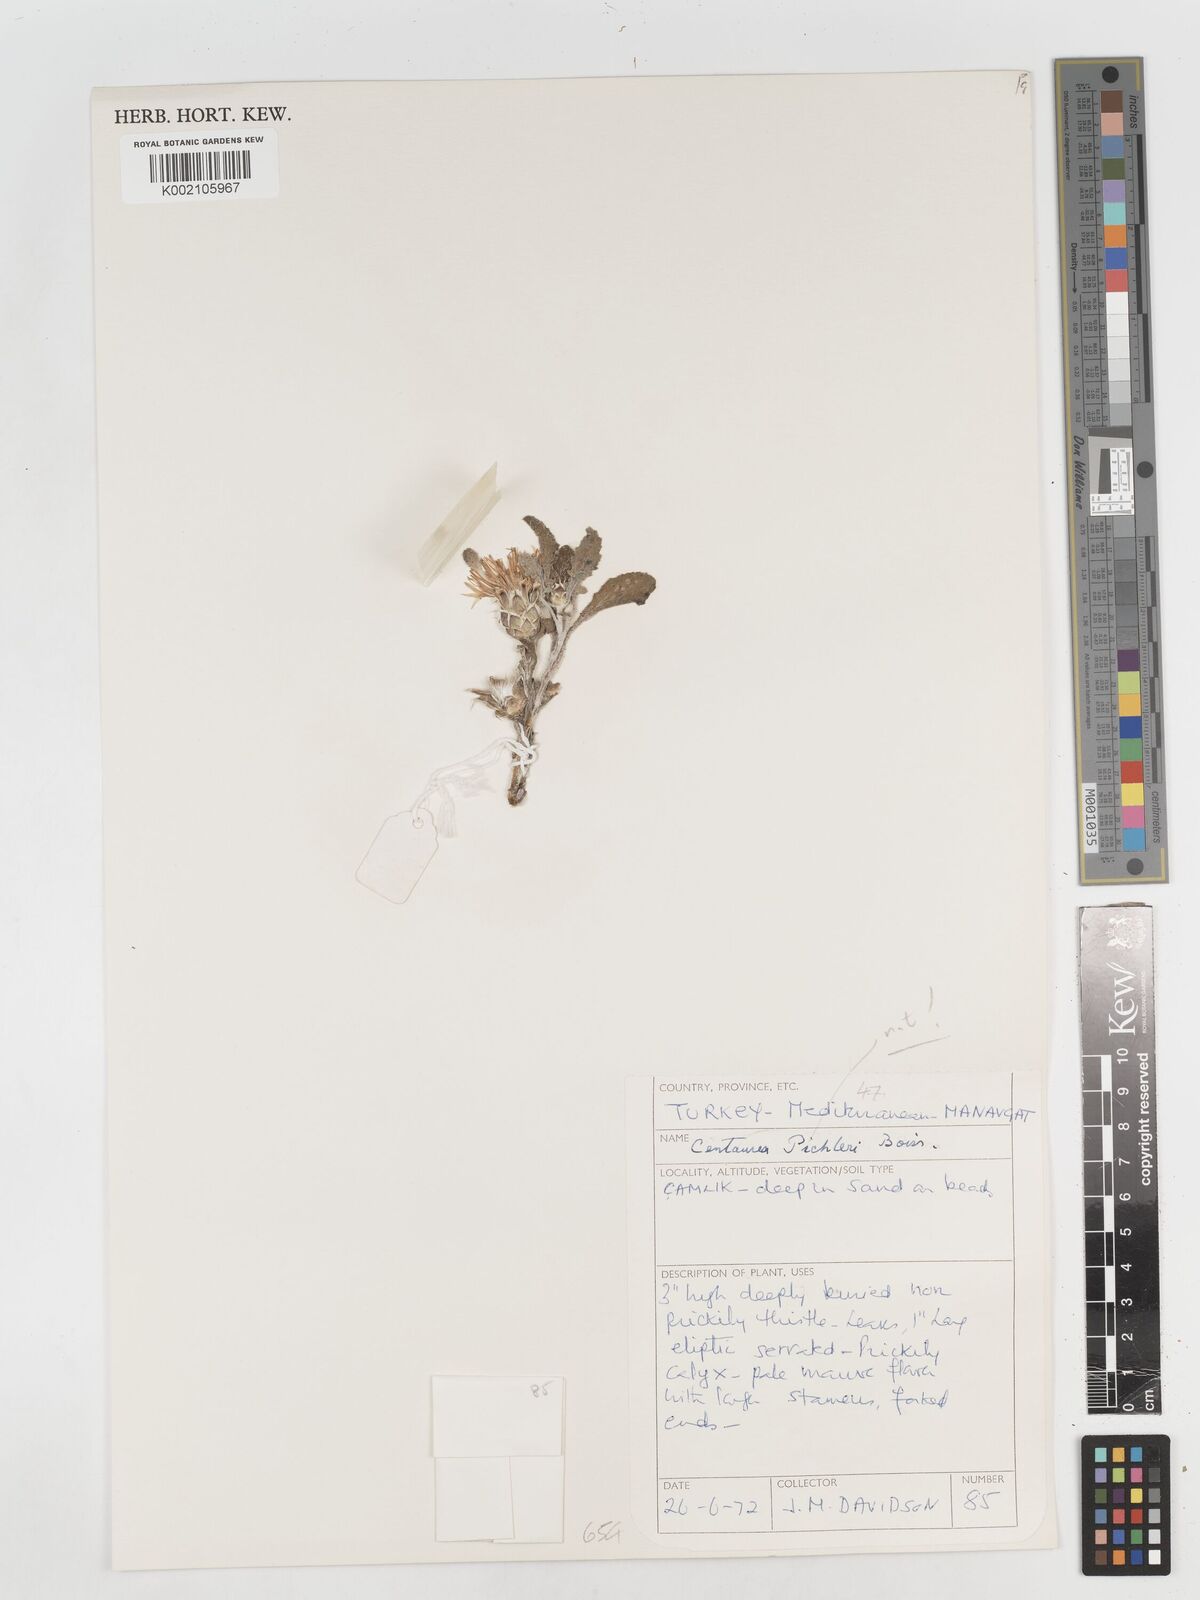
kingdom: Plantae
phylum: Tracheophyta
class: Magnoliopsida
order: Asterales
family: Asteraceae
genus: Centaurea
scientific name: Centaurea
